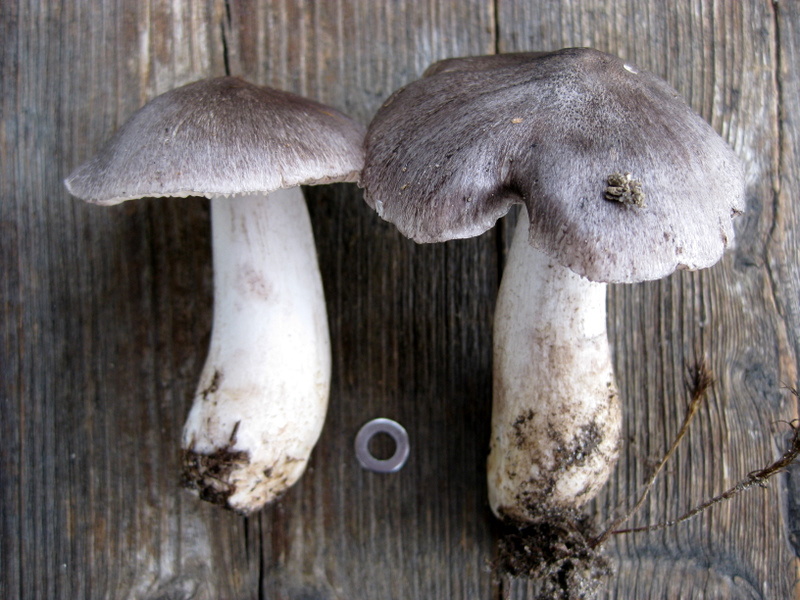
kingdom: Fungi
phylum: Basidiomycota
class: Agaricomycetes
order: Agaricales
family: Tricholomataceae
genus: Tricholoma
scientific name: Tricholoma sciodes
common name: stribet ridderhat
